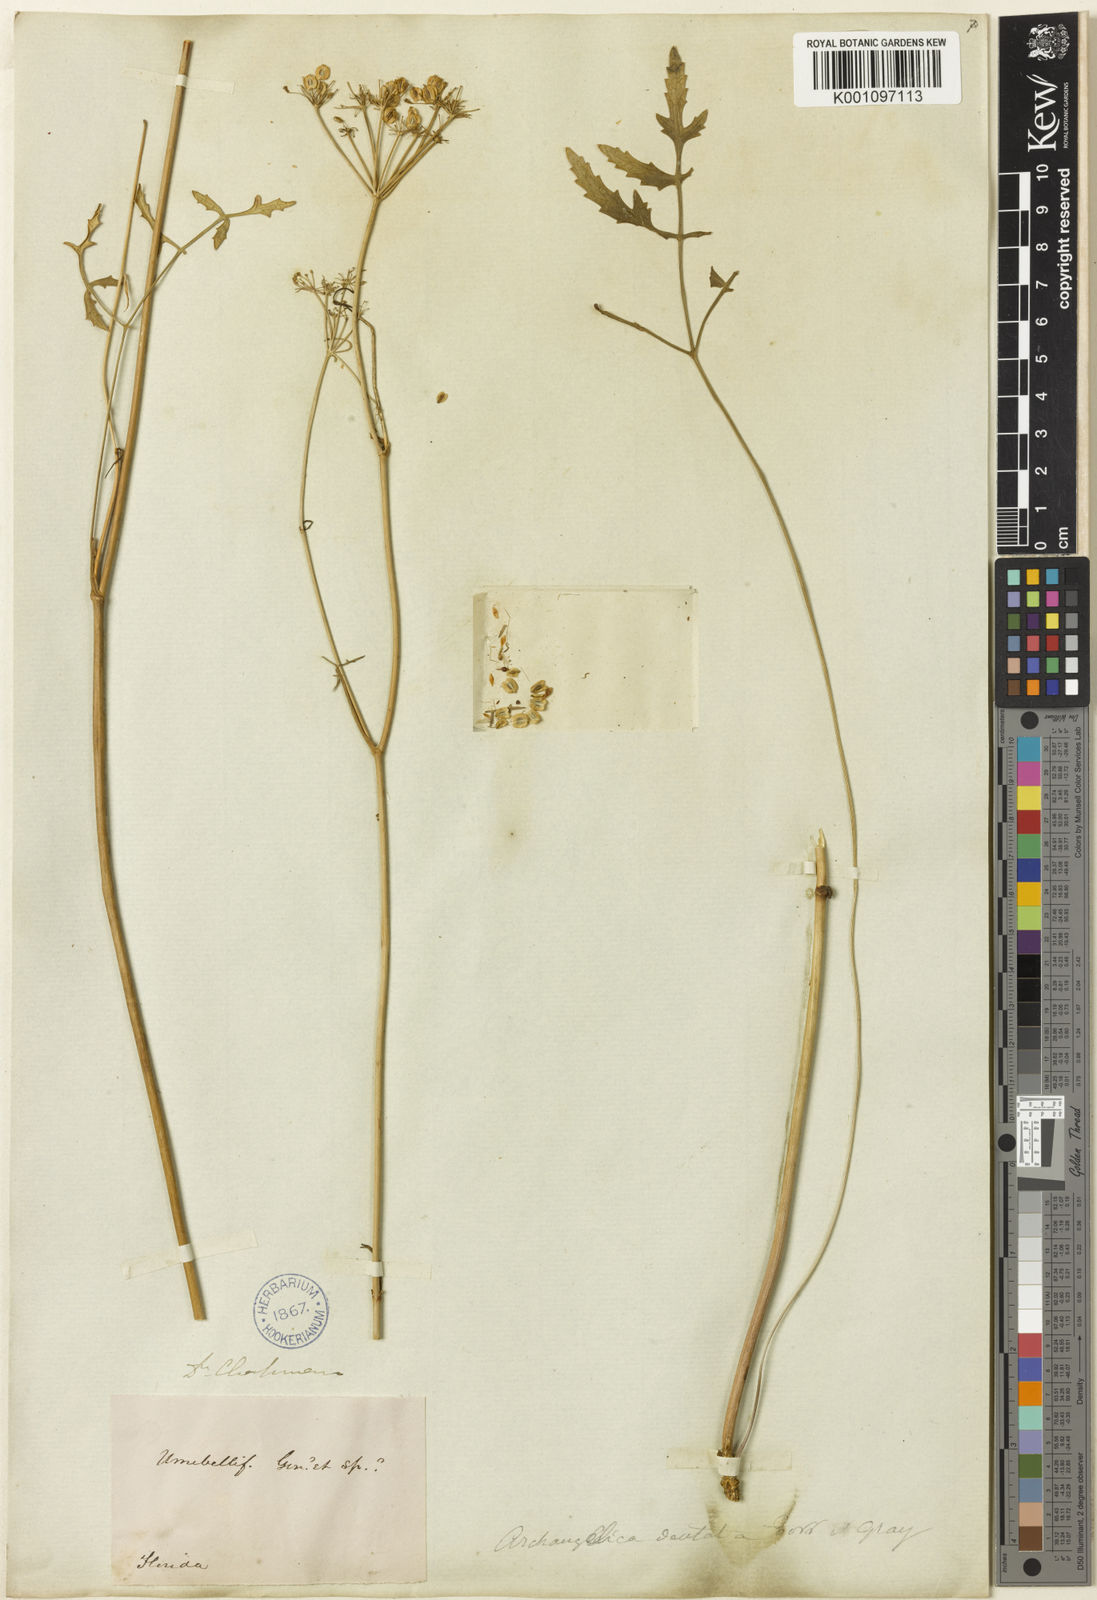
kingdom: Plantae
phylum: Tracheophyta
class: Magnoliopsida
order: Apiales
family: Apiaceae
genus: Angelica
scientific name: Angelica venenosa
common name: Hairy angelica
